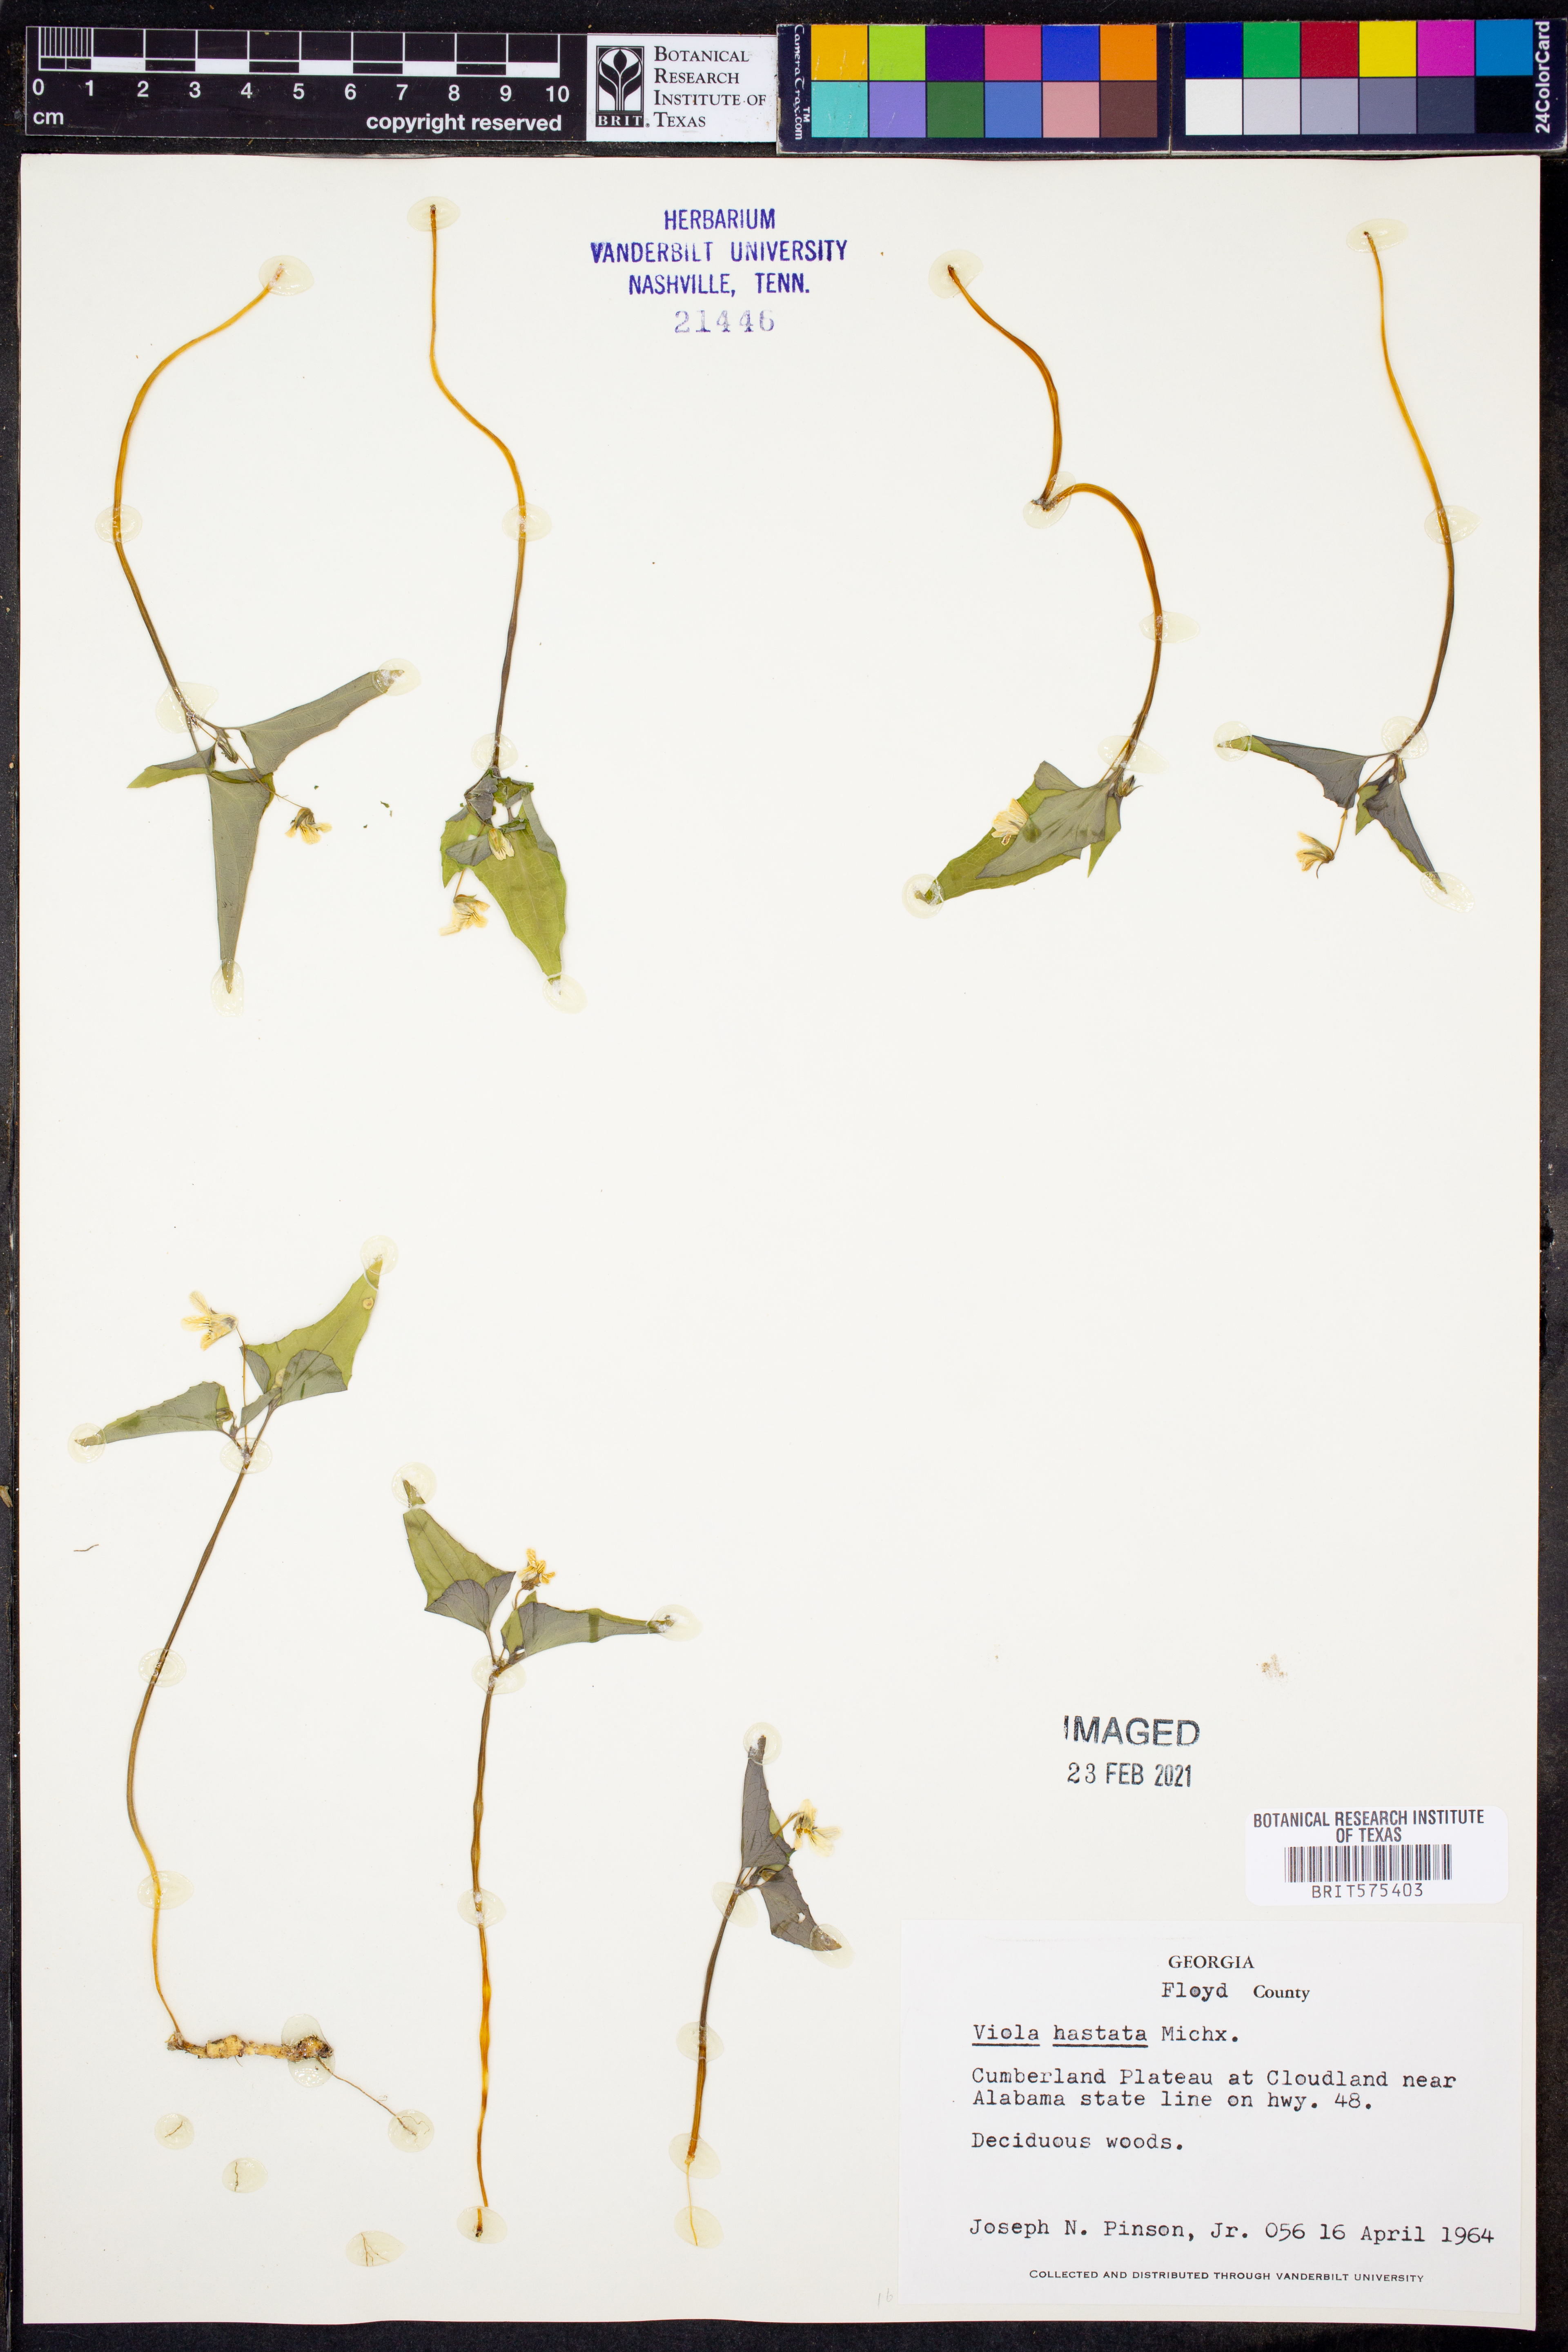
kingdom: Plantae
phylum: Tracheophyta
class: Magnoliopsida
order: Malpighiales
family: Violaceae
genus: Viola
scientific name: Viola hastata
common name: Spear-leaf violet
